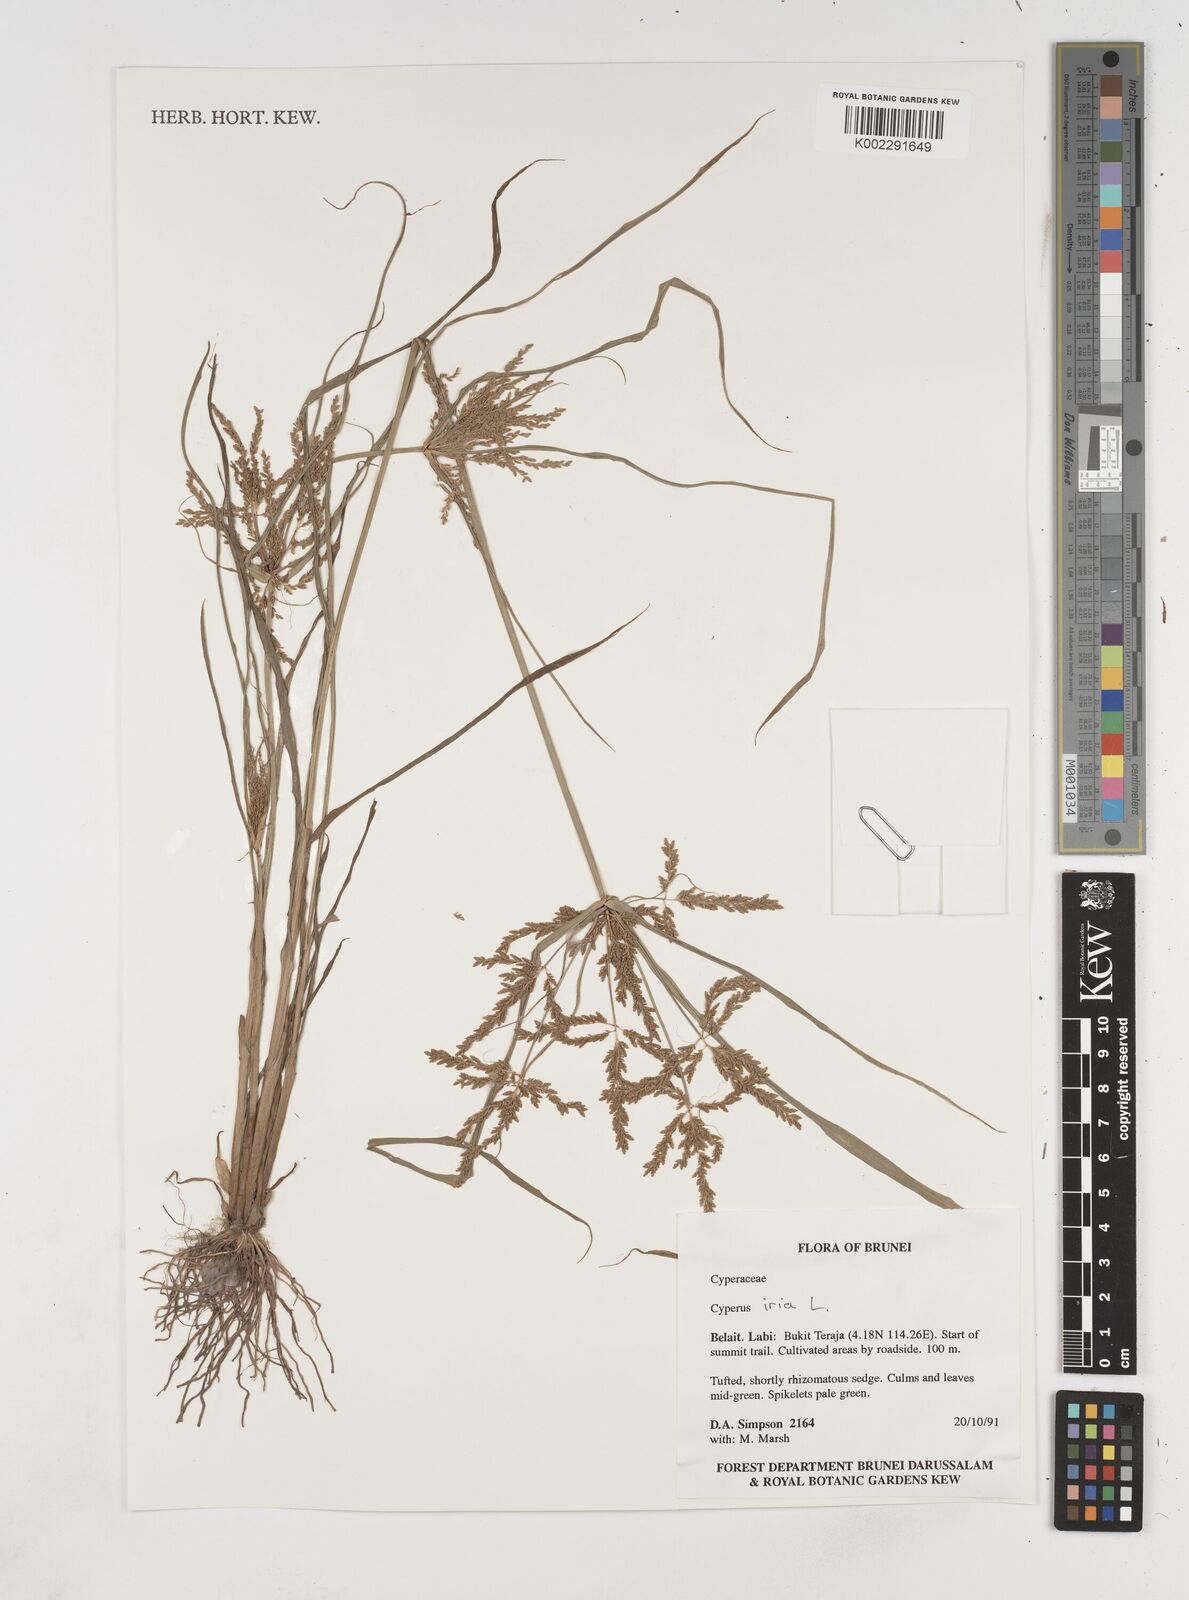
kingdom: Plantae
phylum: Tracheophyta
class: Liliopsida
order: Poales
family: Cyperaceae
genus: Cyperus
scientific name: Cyperus iria
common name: Ricefield flatsedge
